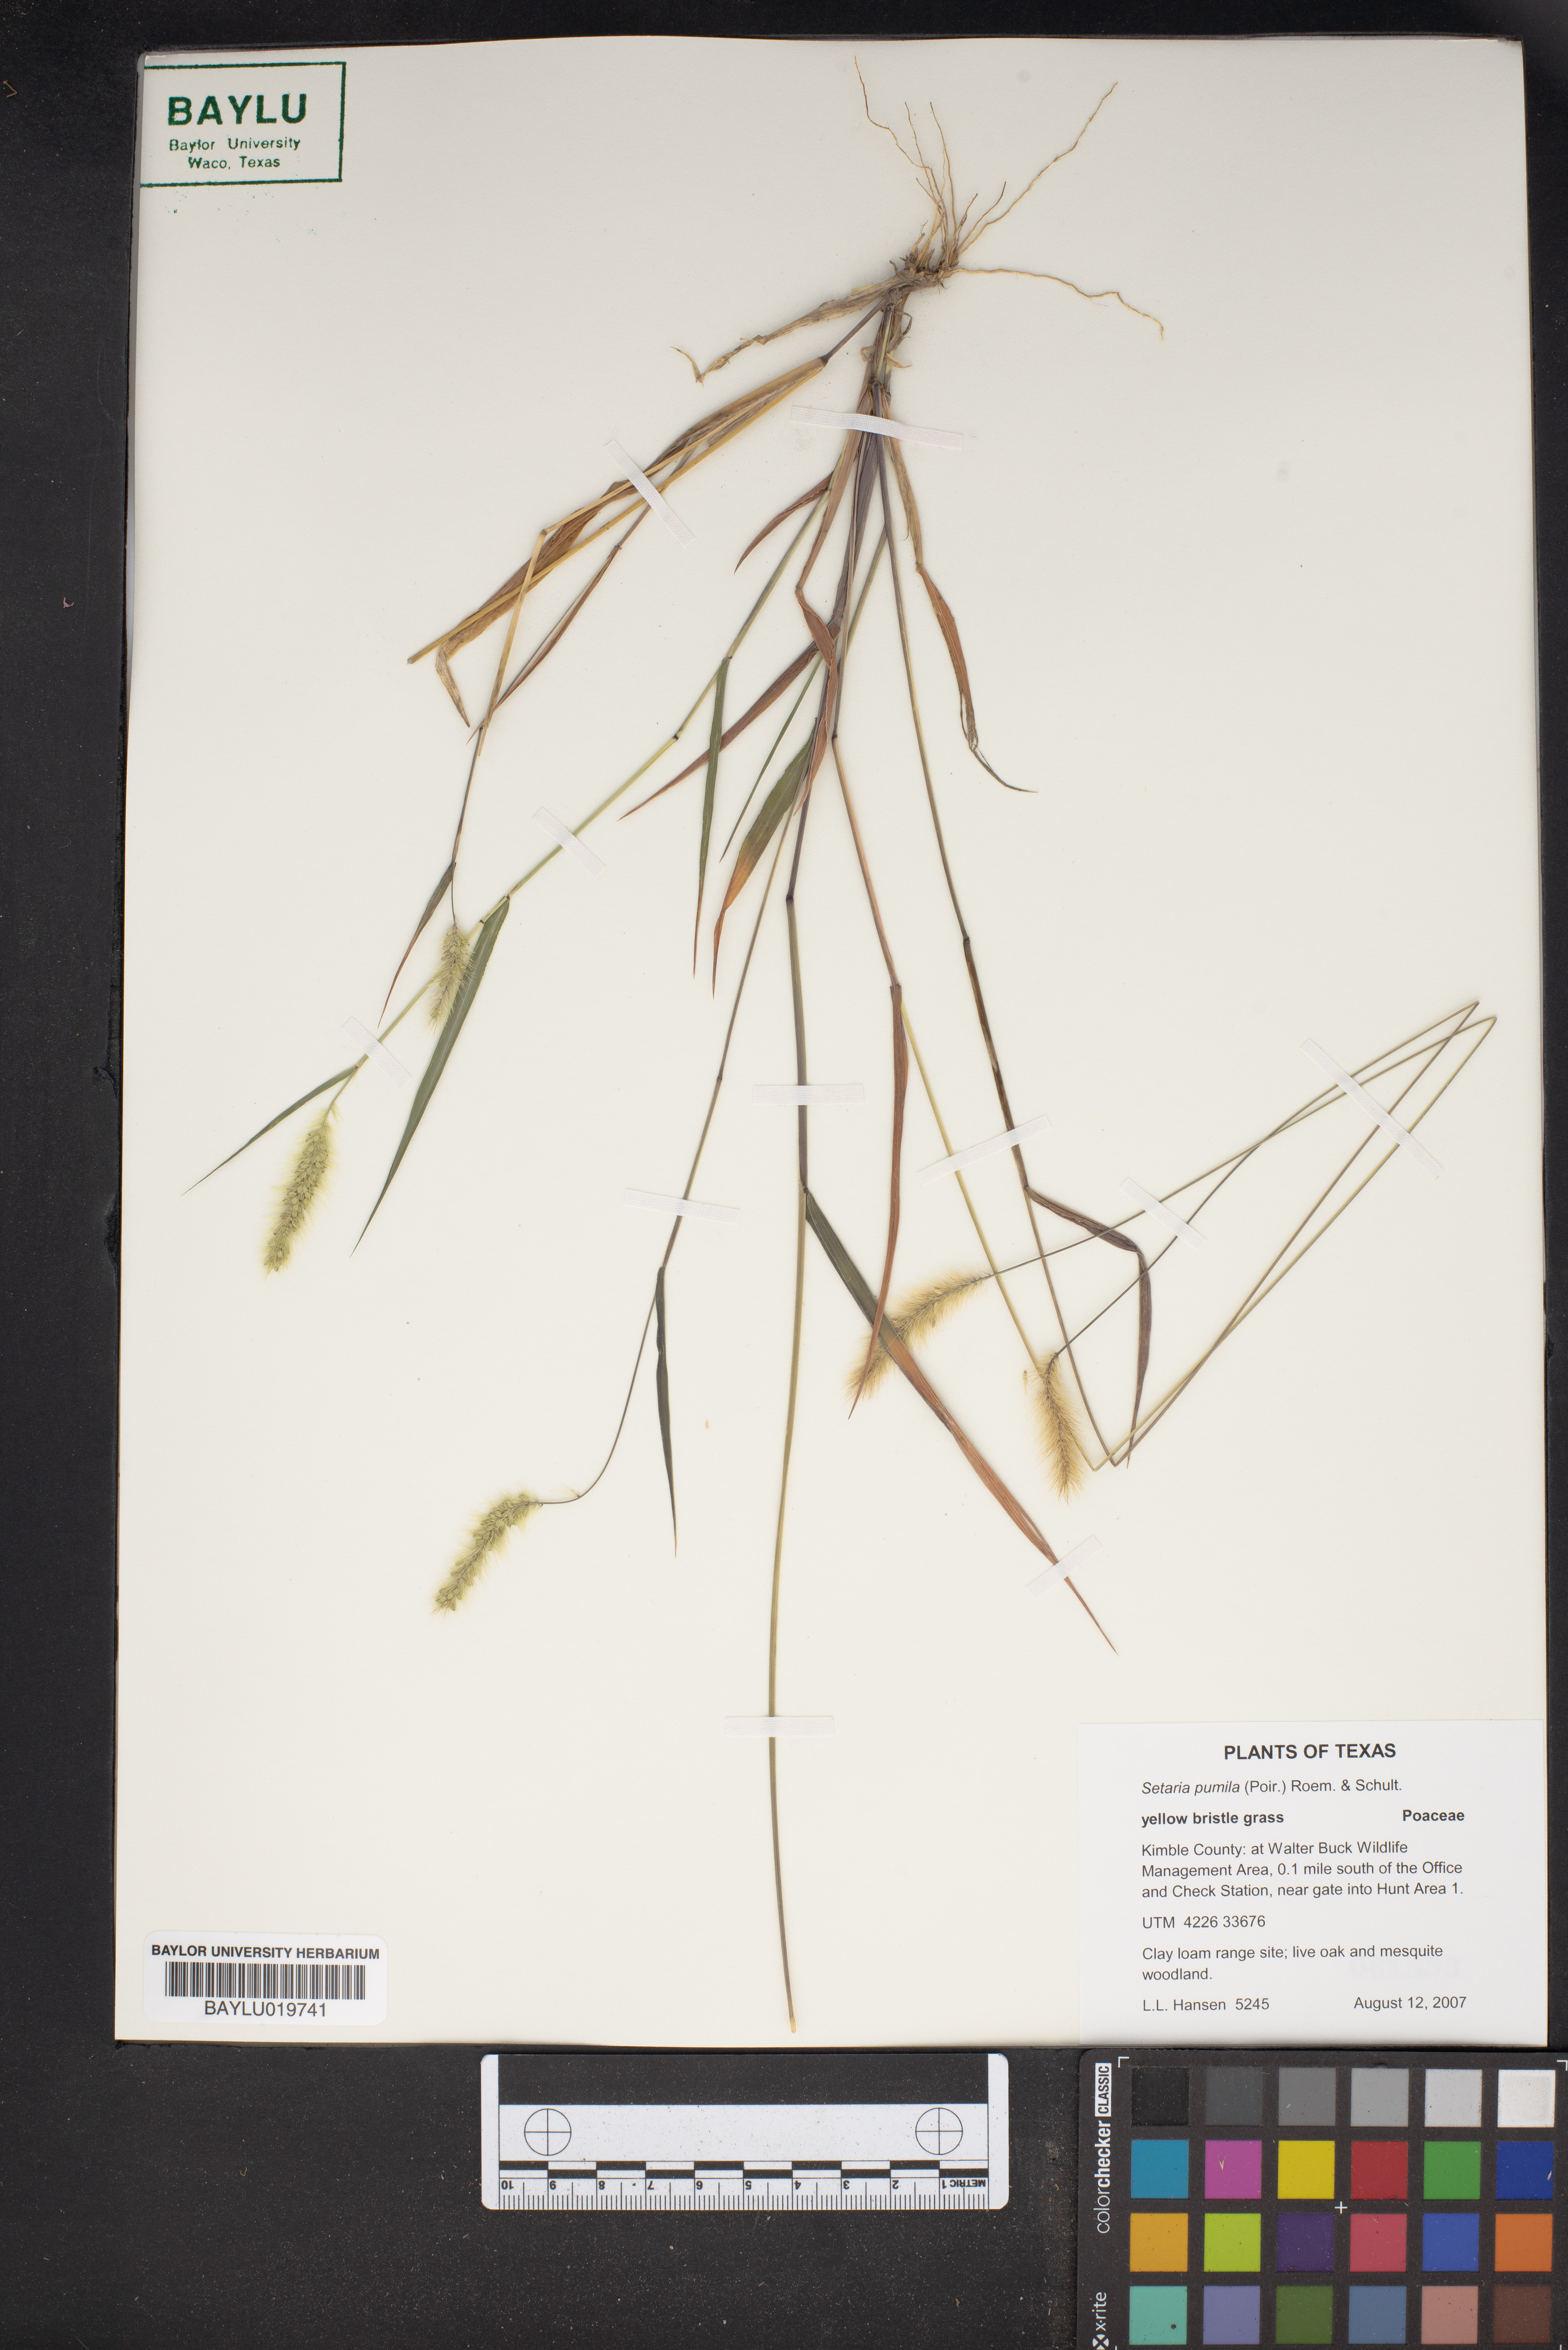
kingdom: Plantae
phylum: Tracheophyta
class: Liliopsida
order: Poales
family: Poaceae
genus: Setaria
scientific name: Setaria pumila
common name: Yellow bristle-grass
